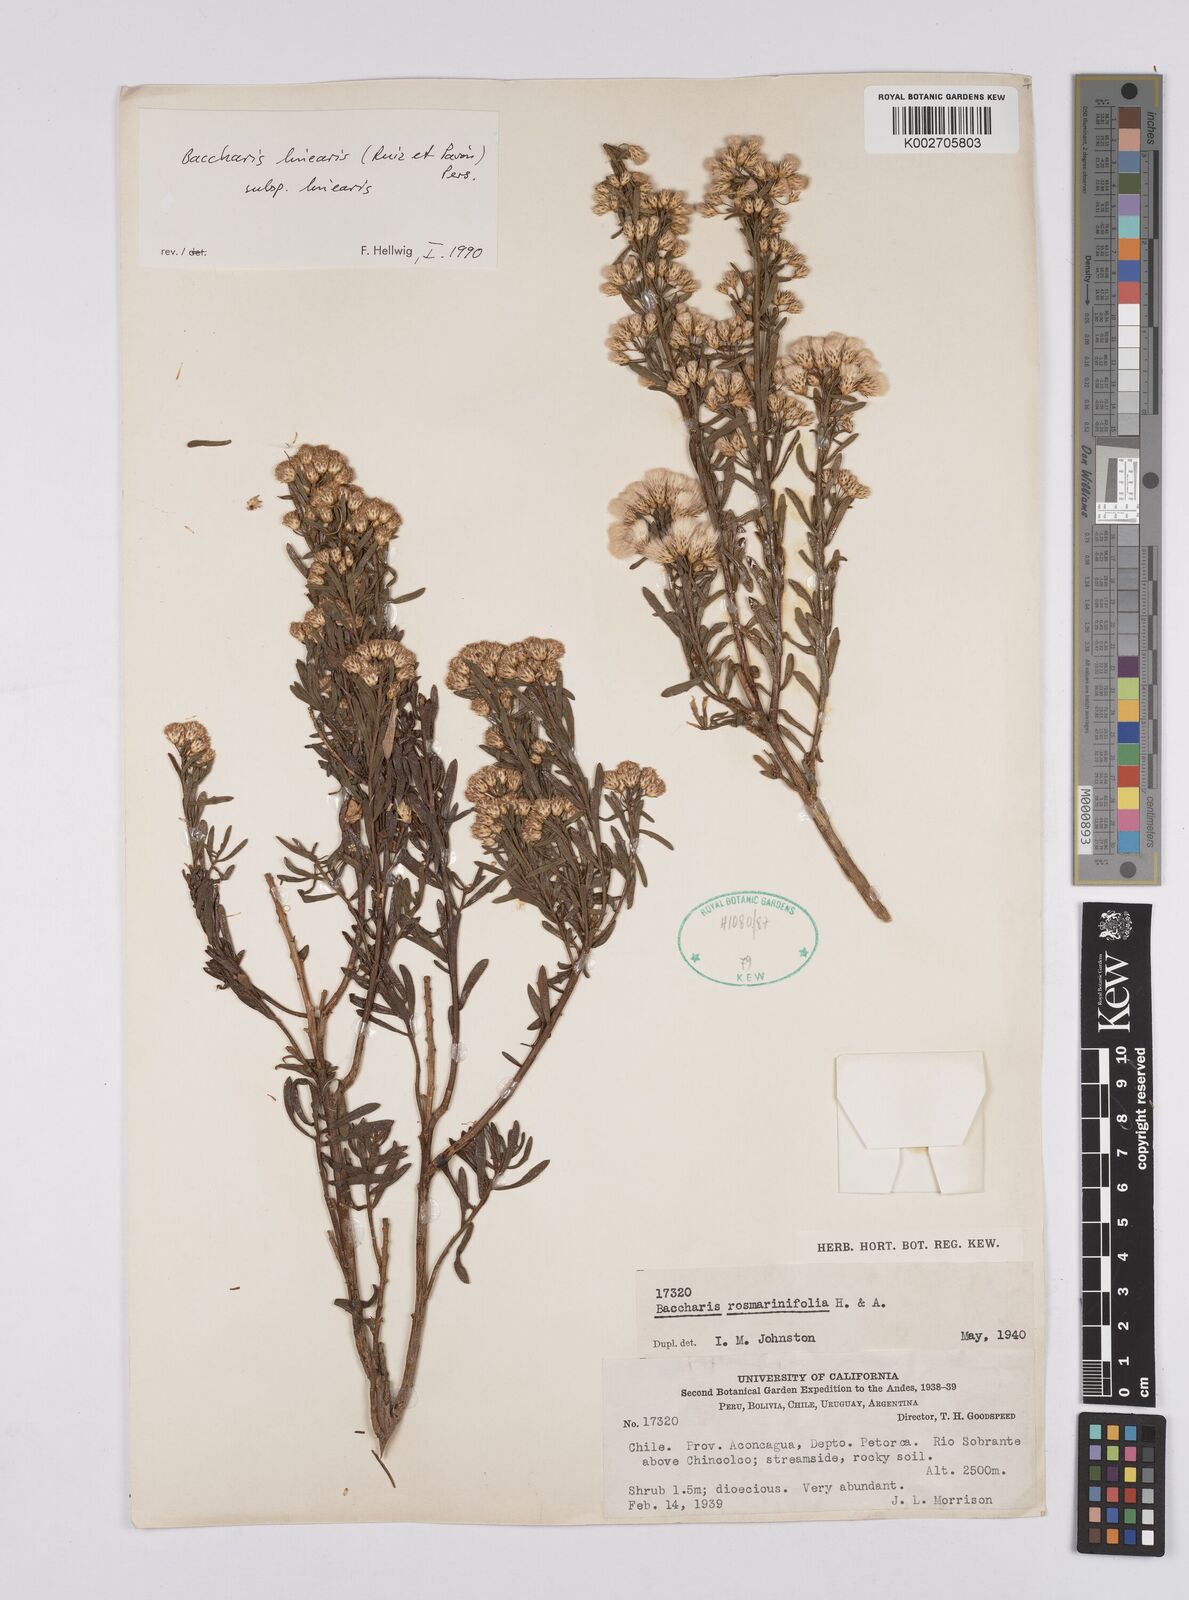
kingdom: Plantae
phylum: Tracheophyta
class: Magnoliopsida
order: Asterales
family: Asteraceae
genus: Baccharis
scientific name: Baccharis linearis
